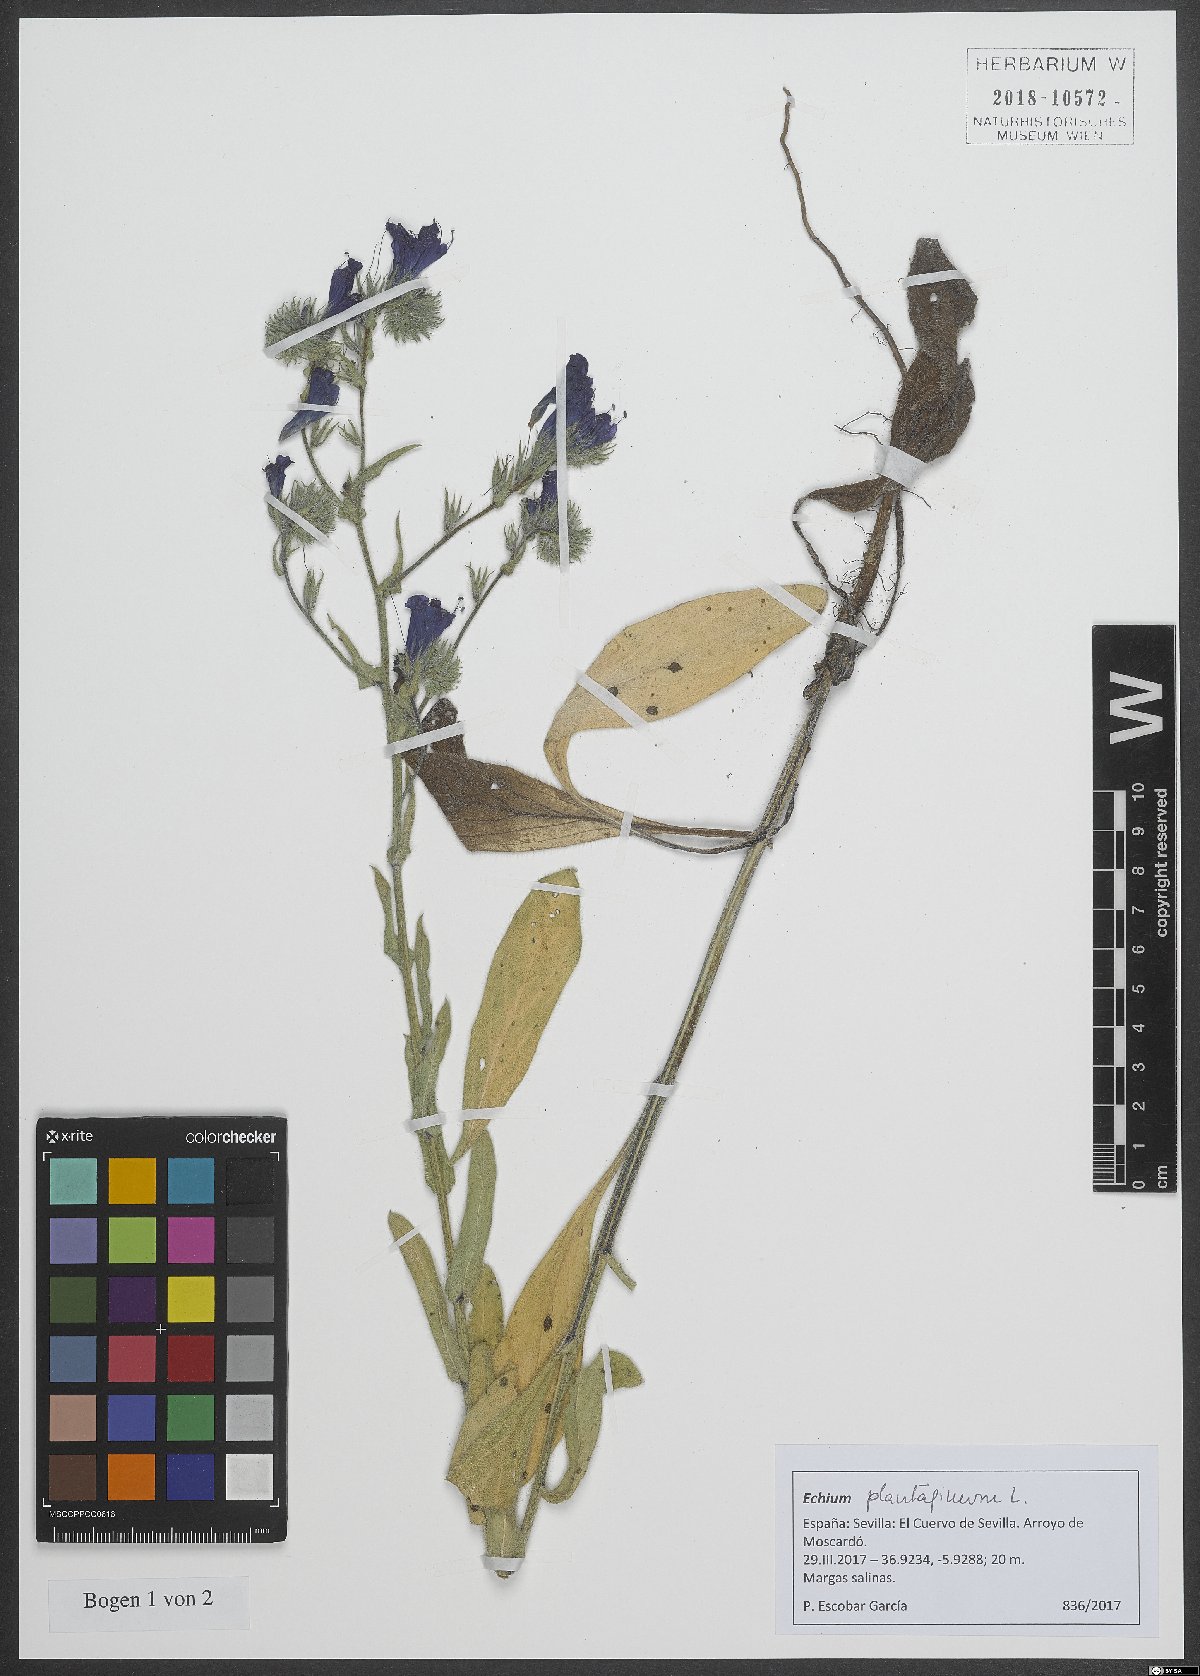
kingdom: Plantae
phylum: Tracheophyta
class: Magnoliopsida
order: Boraginales
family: Boraginaceae
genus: Echium
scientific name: Echium plantagineum
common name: Purple viper's-bugloss
